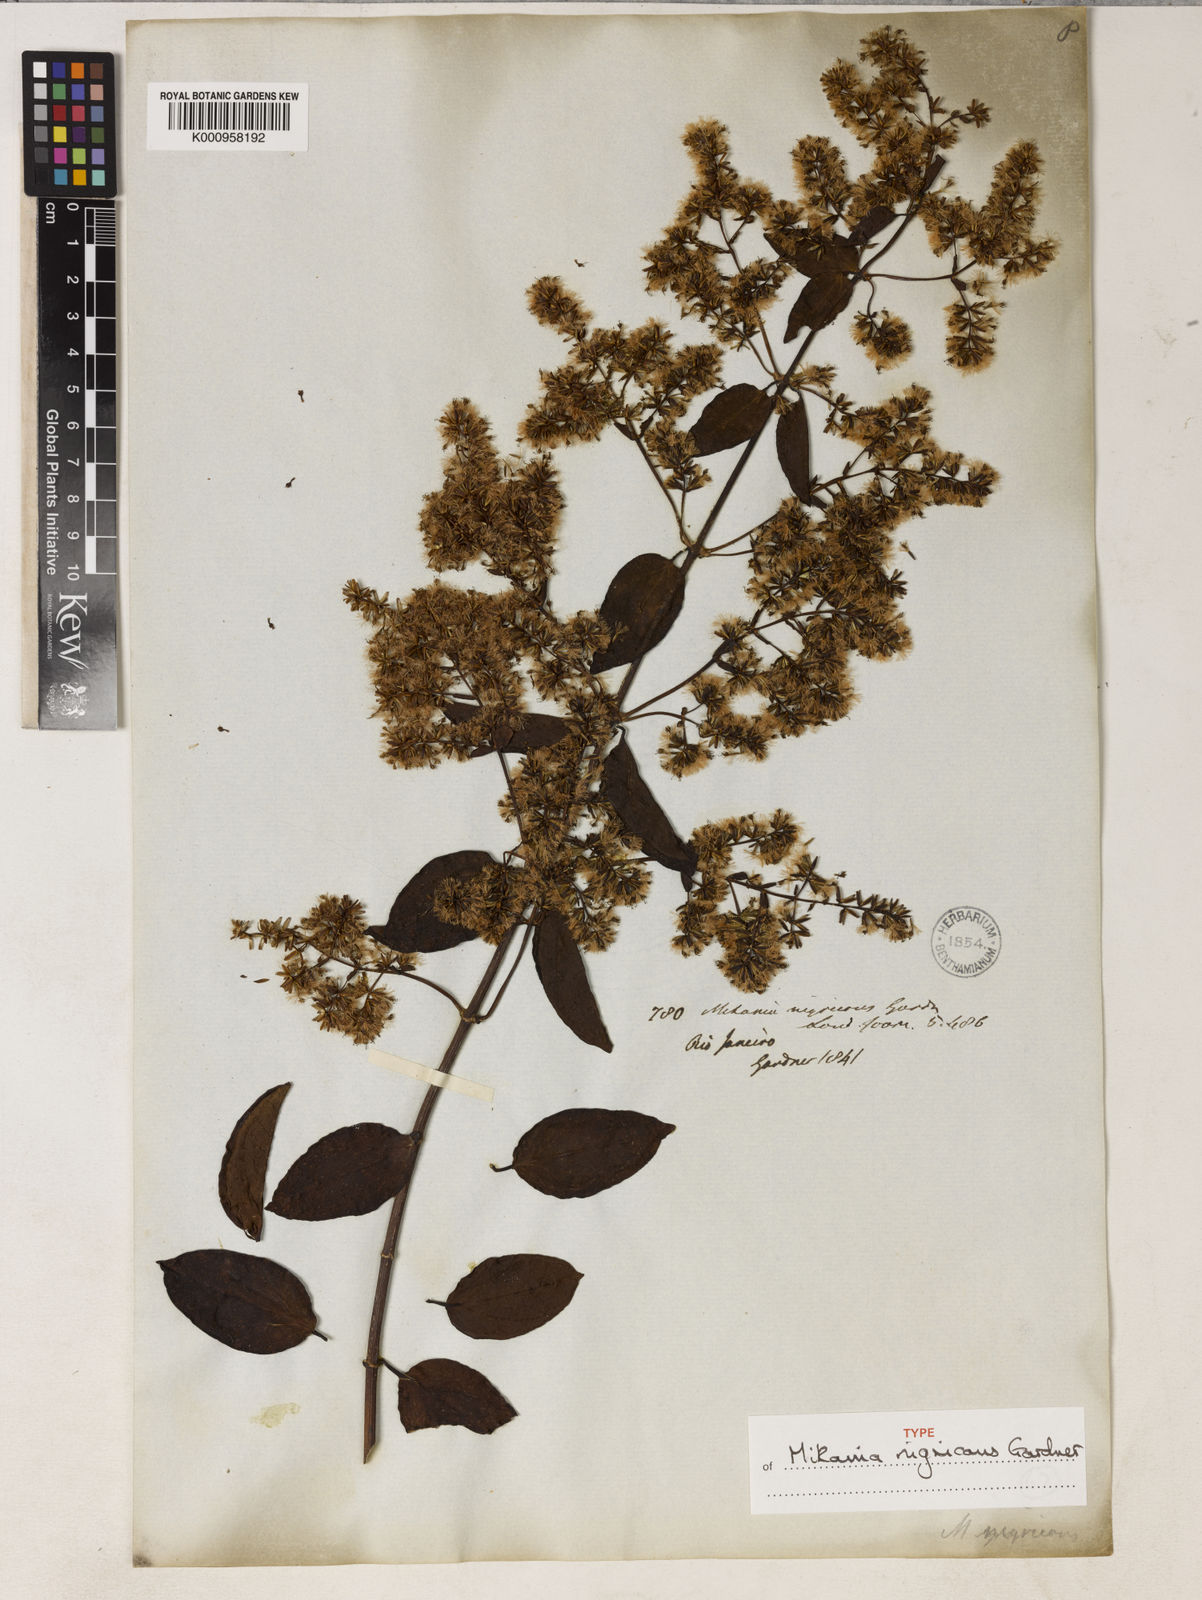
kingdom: Plantae
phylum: Tracheophyta
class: Magnoliopsida
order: Asterales
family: Asteraceae
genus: Mikania
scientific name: Mikania nigricans
